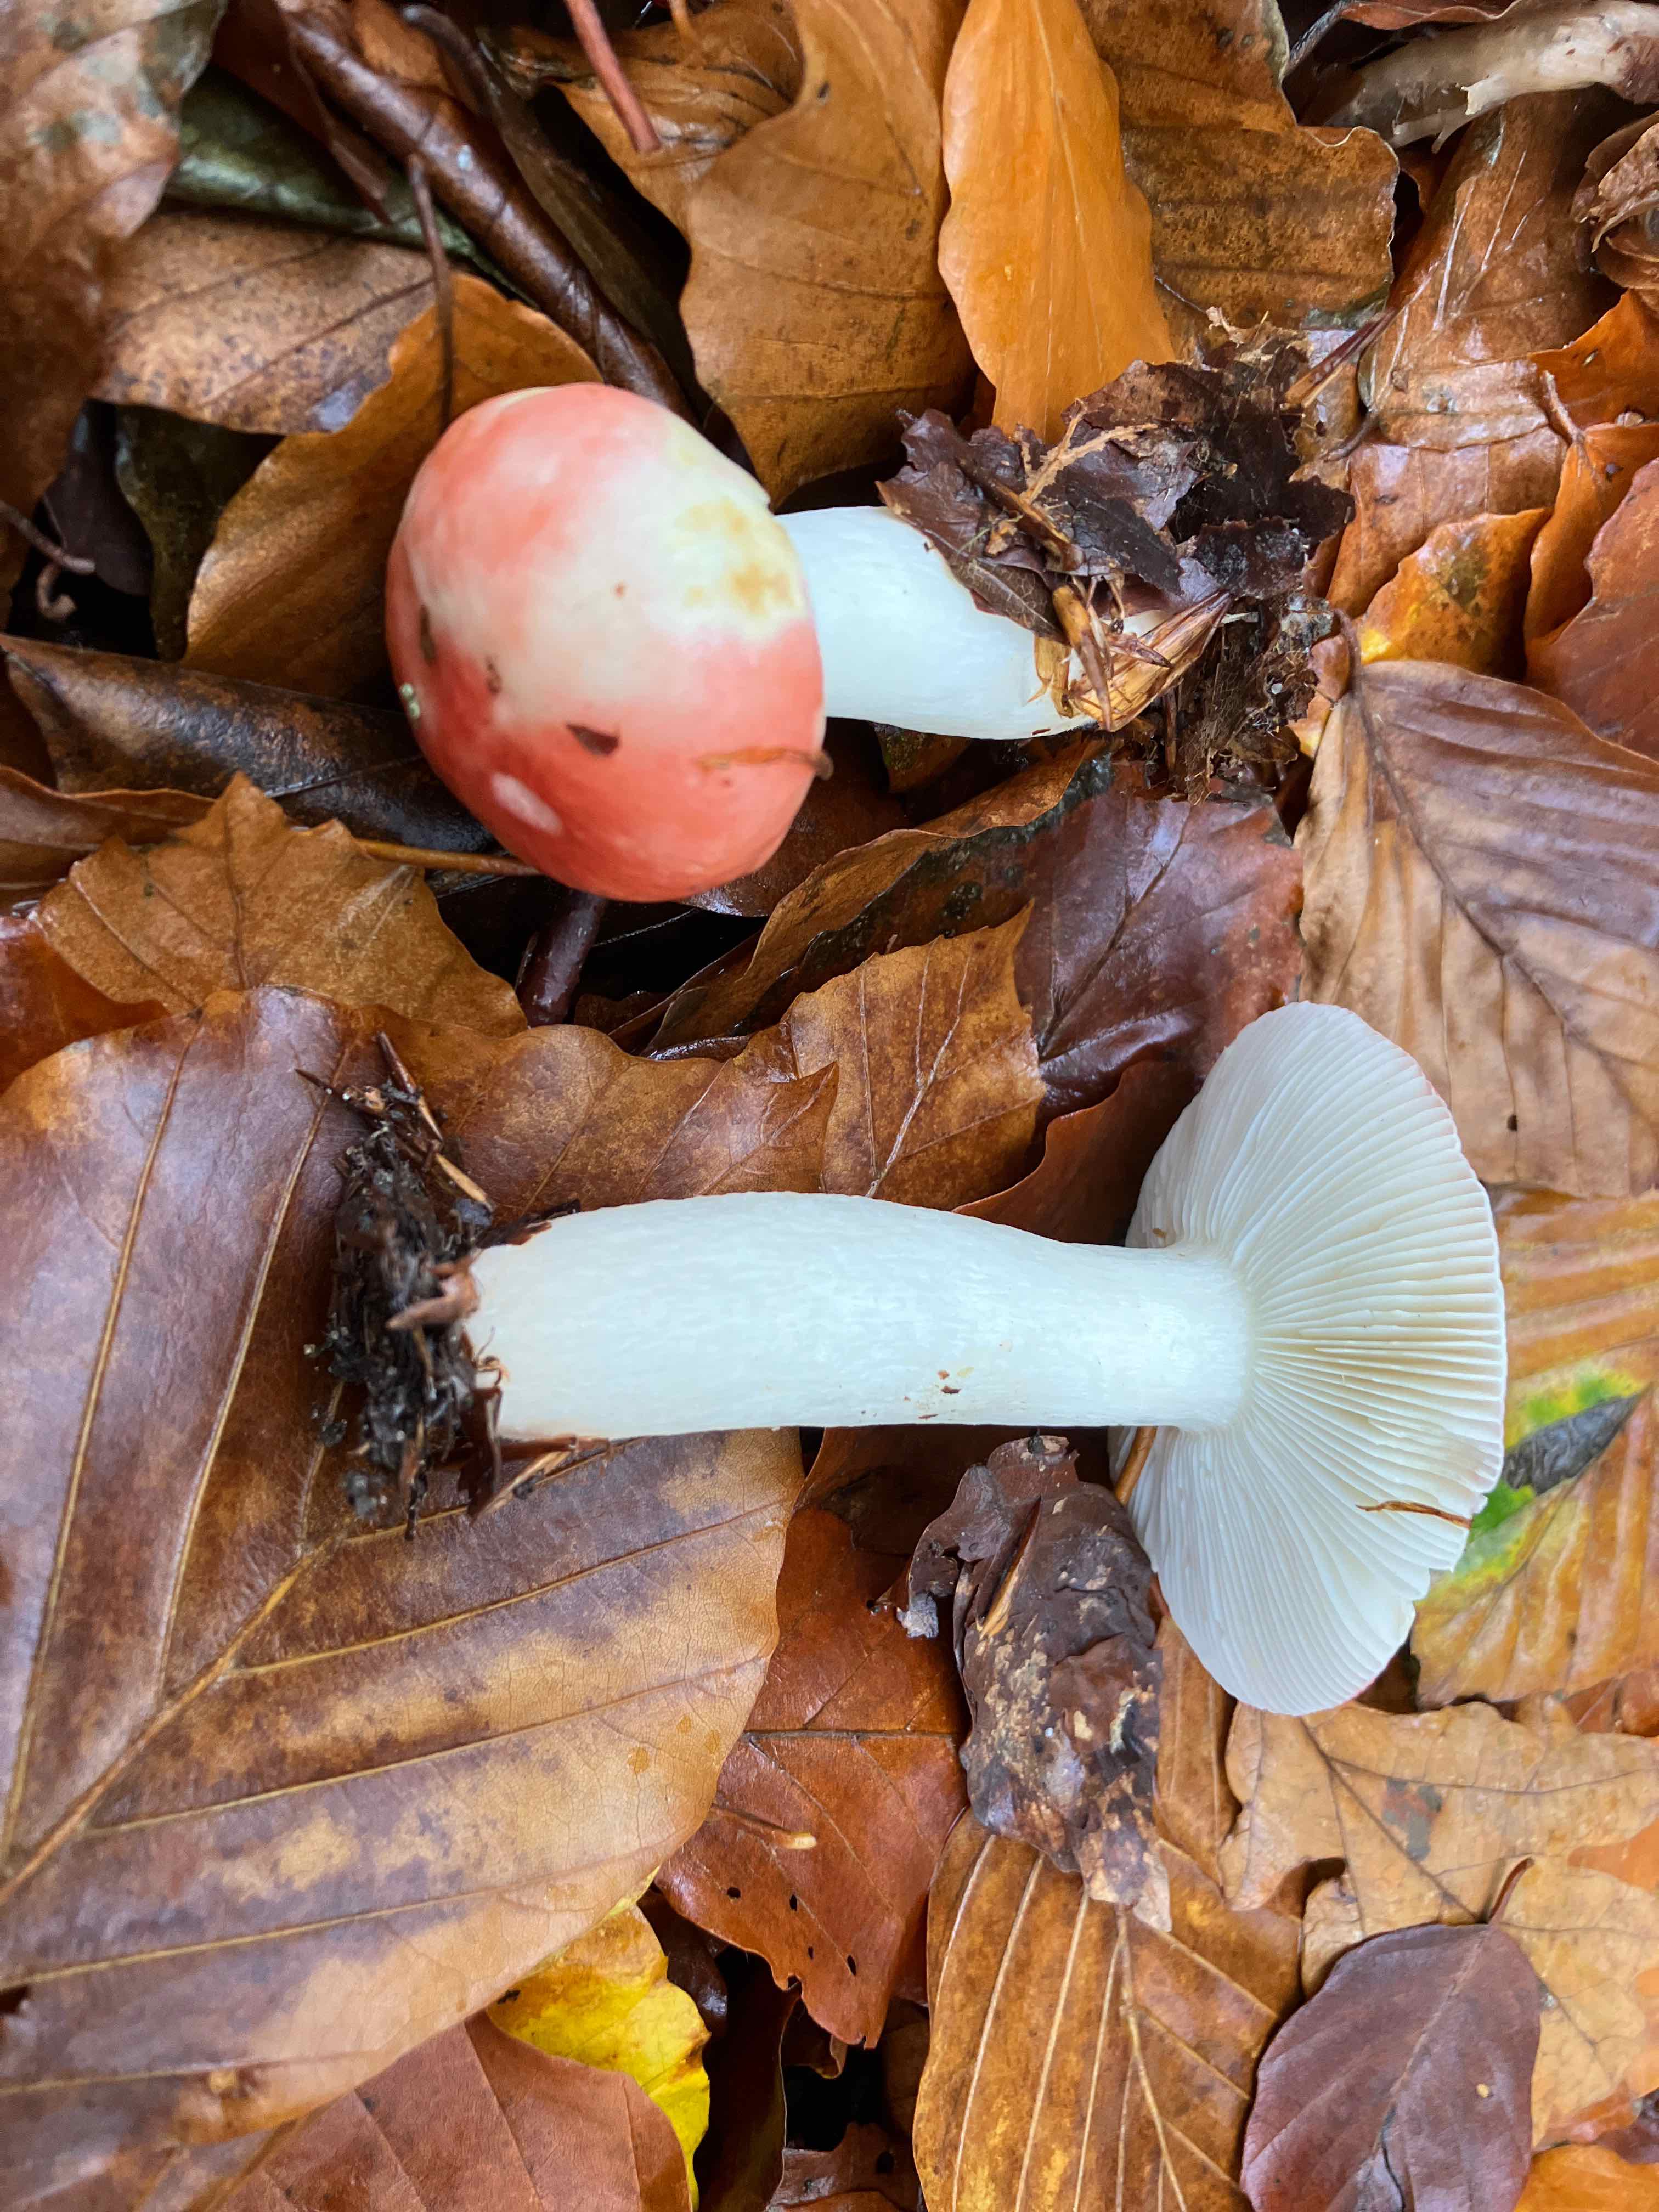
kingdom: Fungi
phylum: Basidiomycota
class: Agaricomycetes
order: Russulales
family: Russulaceae
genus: Russula
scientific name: Russula
